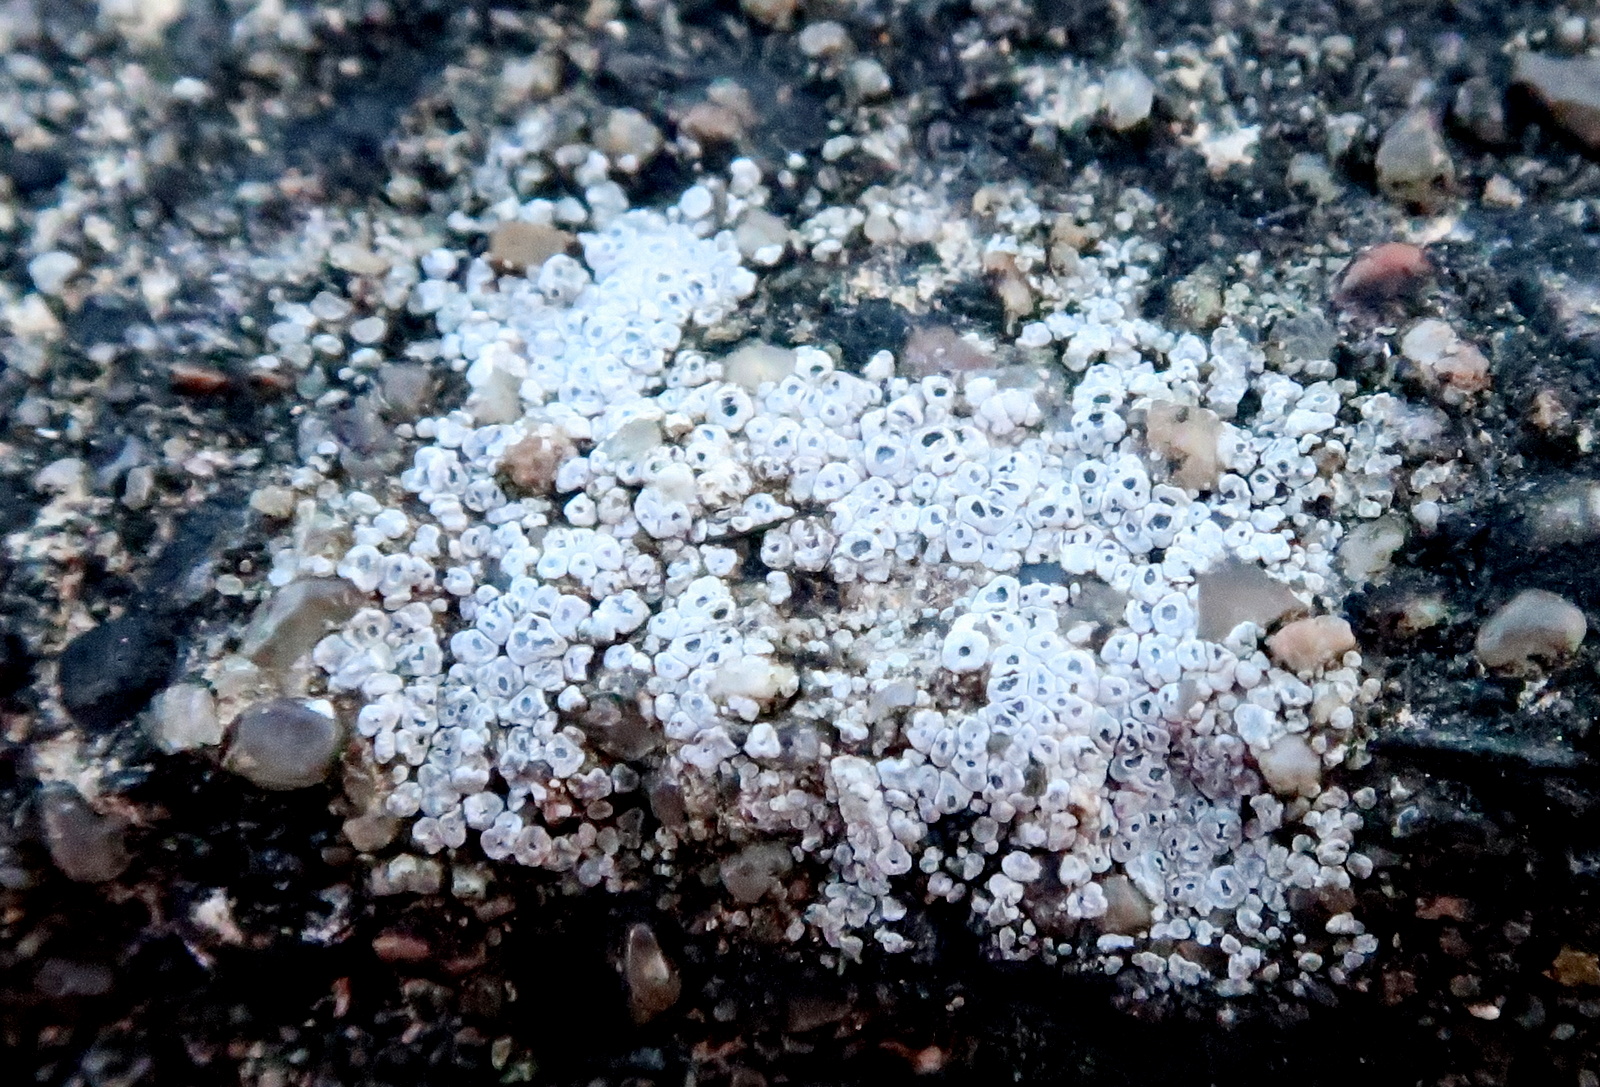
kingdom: Fungi
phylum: Ascomycota
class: Lecanoromycetes
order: Pertusariales
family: Megasporaceae
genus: Circinaria
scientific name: Circinaria contorta
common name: indviklet hulskivelav
